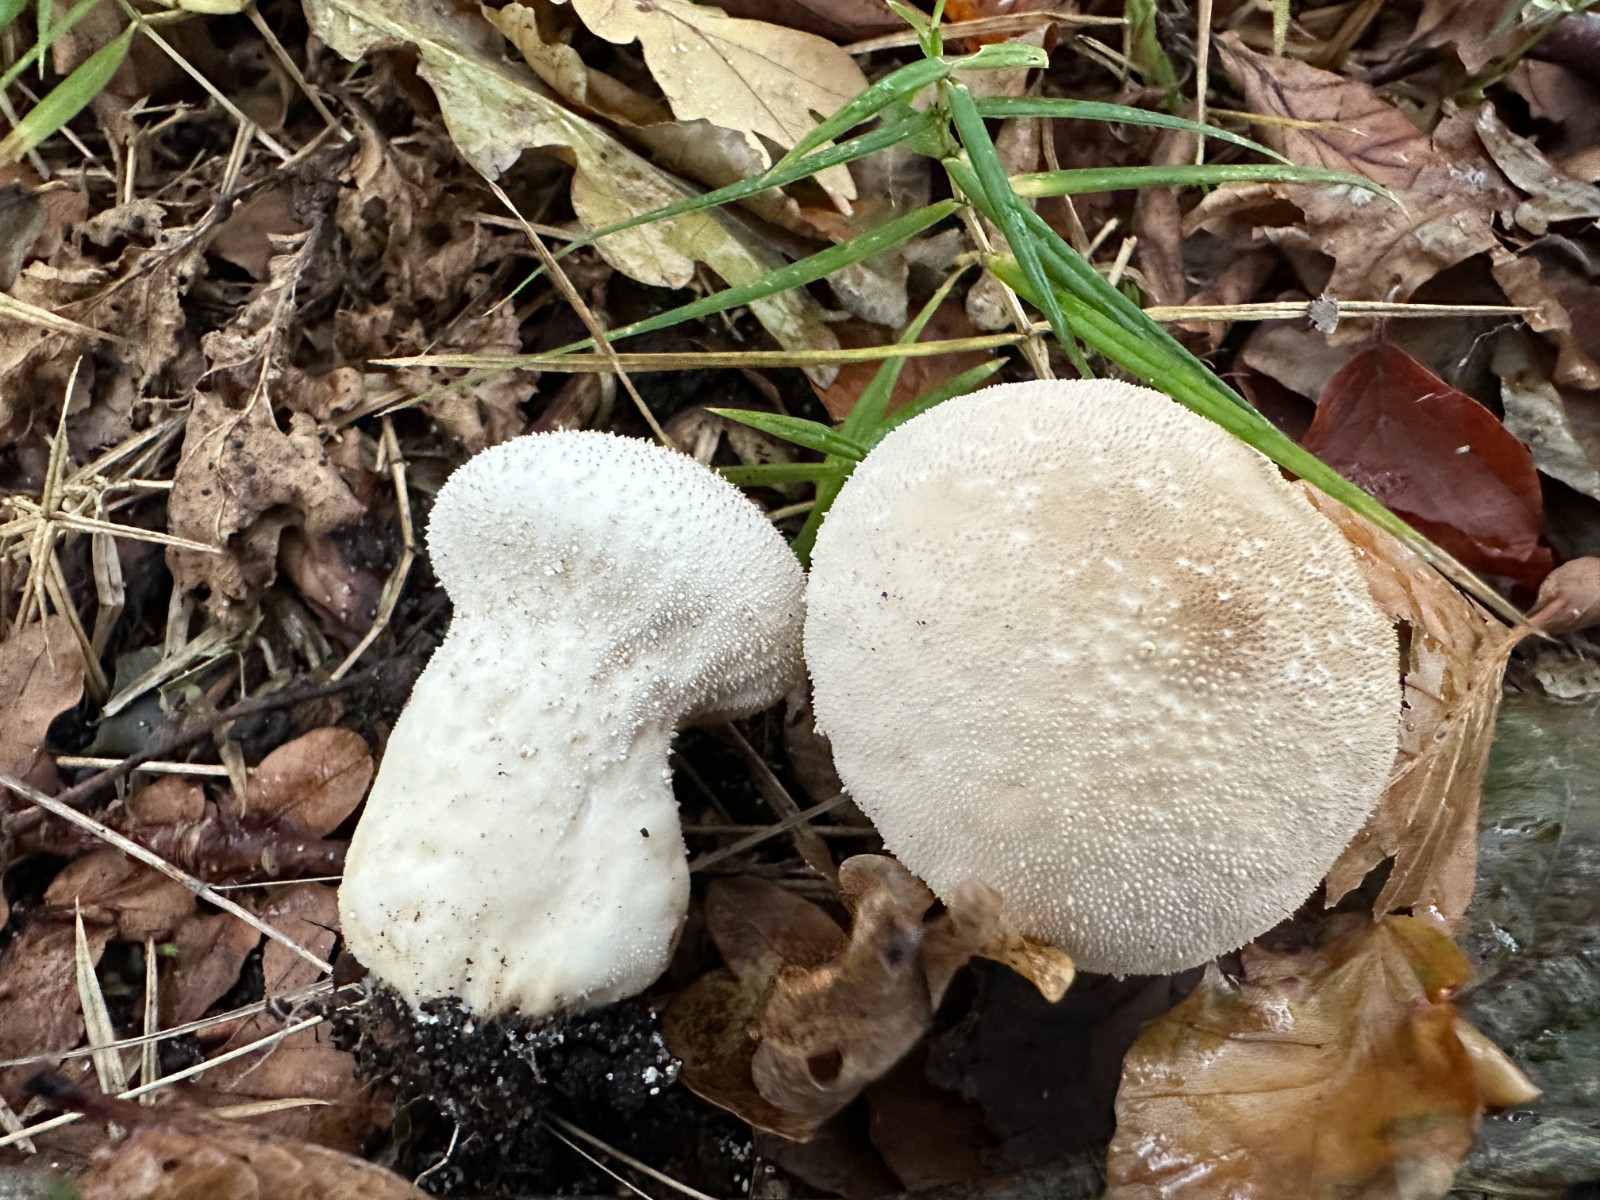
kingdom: Fungi
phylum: Basidiomycota
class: Agaricomycetes
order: Agaricales
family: Lycoperdaceae
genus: Lycoperdon
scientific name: Lycoperdon perlatum
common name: krystal-støvbold
